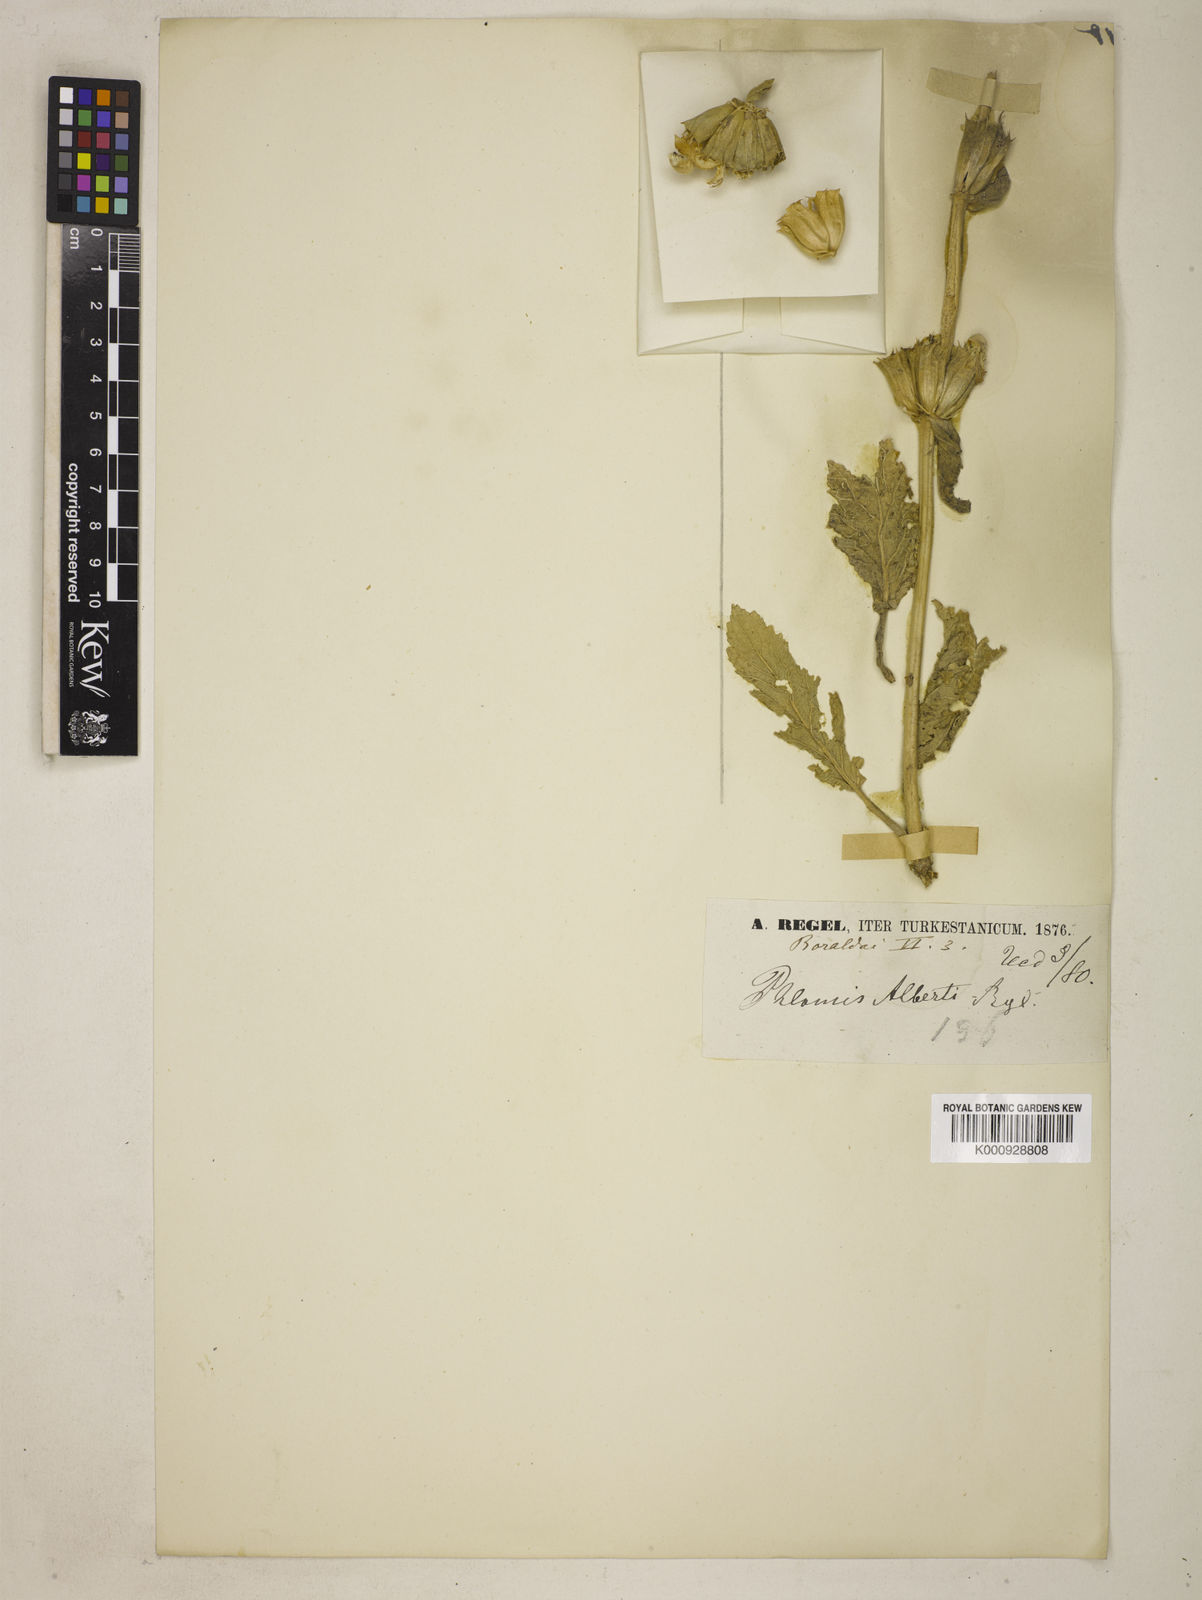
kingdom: Plantae
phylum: Tracheophyta
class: Magnoliopsida
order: Lamiales
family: Lamiaceae
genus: Phlomoides
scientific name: Phlomoides fetisowii
